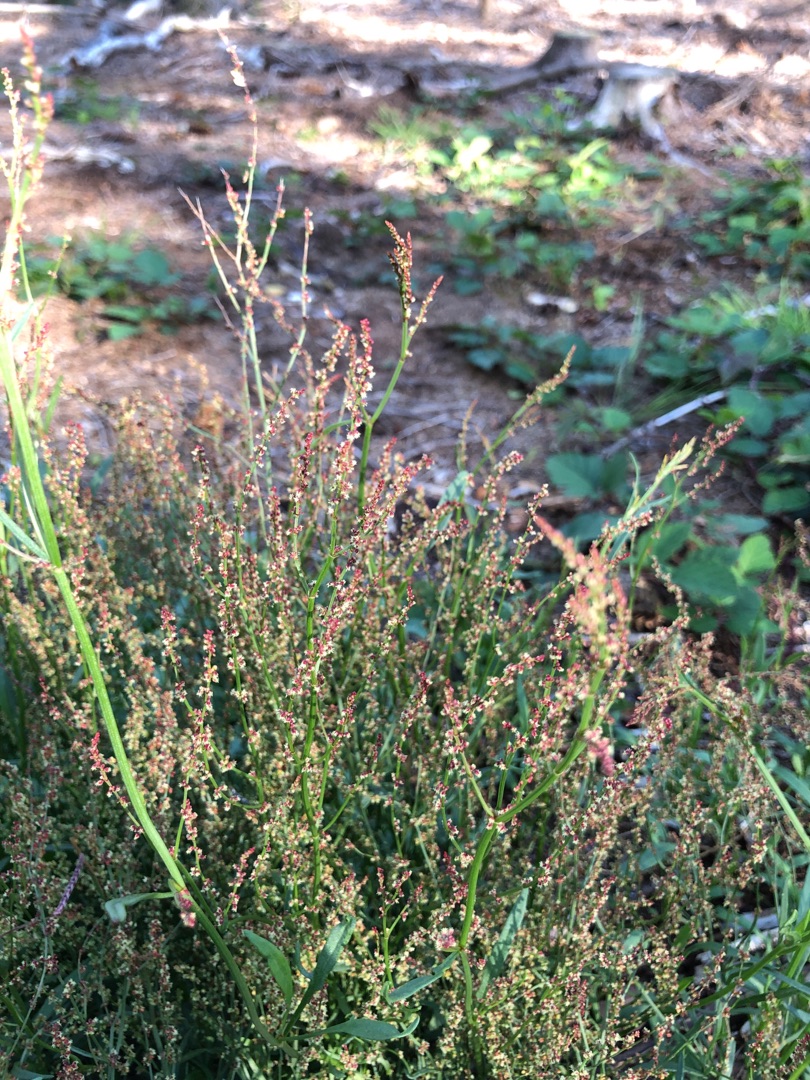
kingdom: Plantae
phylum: Tracheophyta
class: Magnoliopsida
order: Caryophyllales
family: Polygonaceae
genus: Rumex
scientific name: Rumex acetosella
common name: Rødknæ
